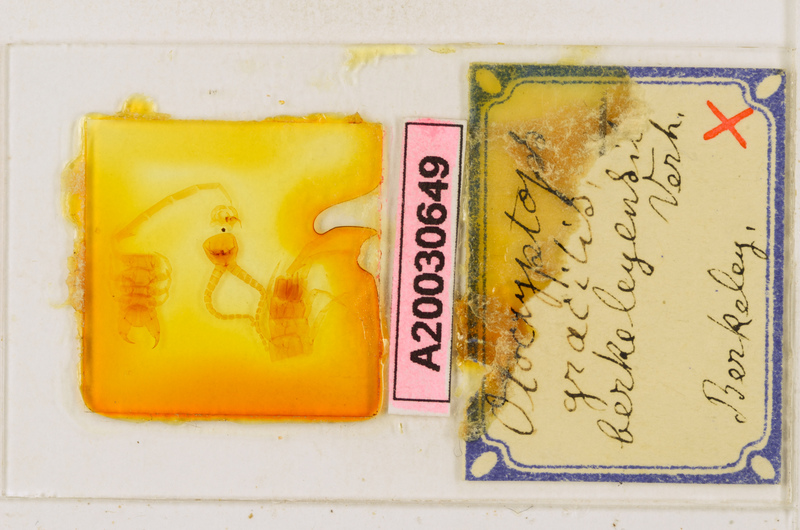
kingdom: Animalia
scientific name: Animalia
